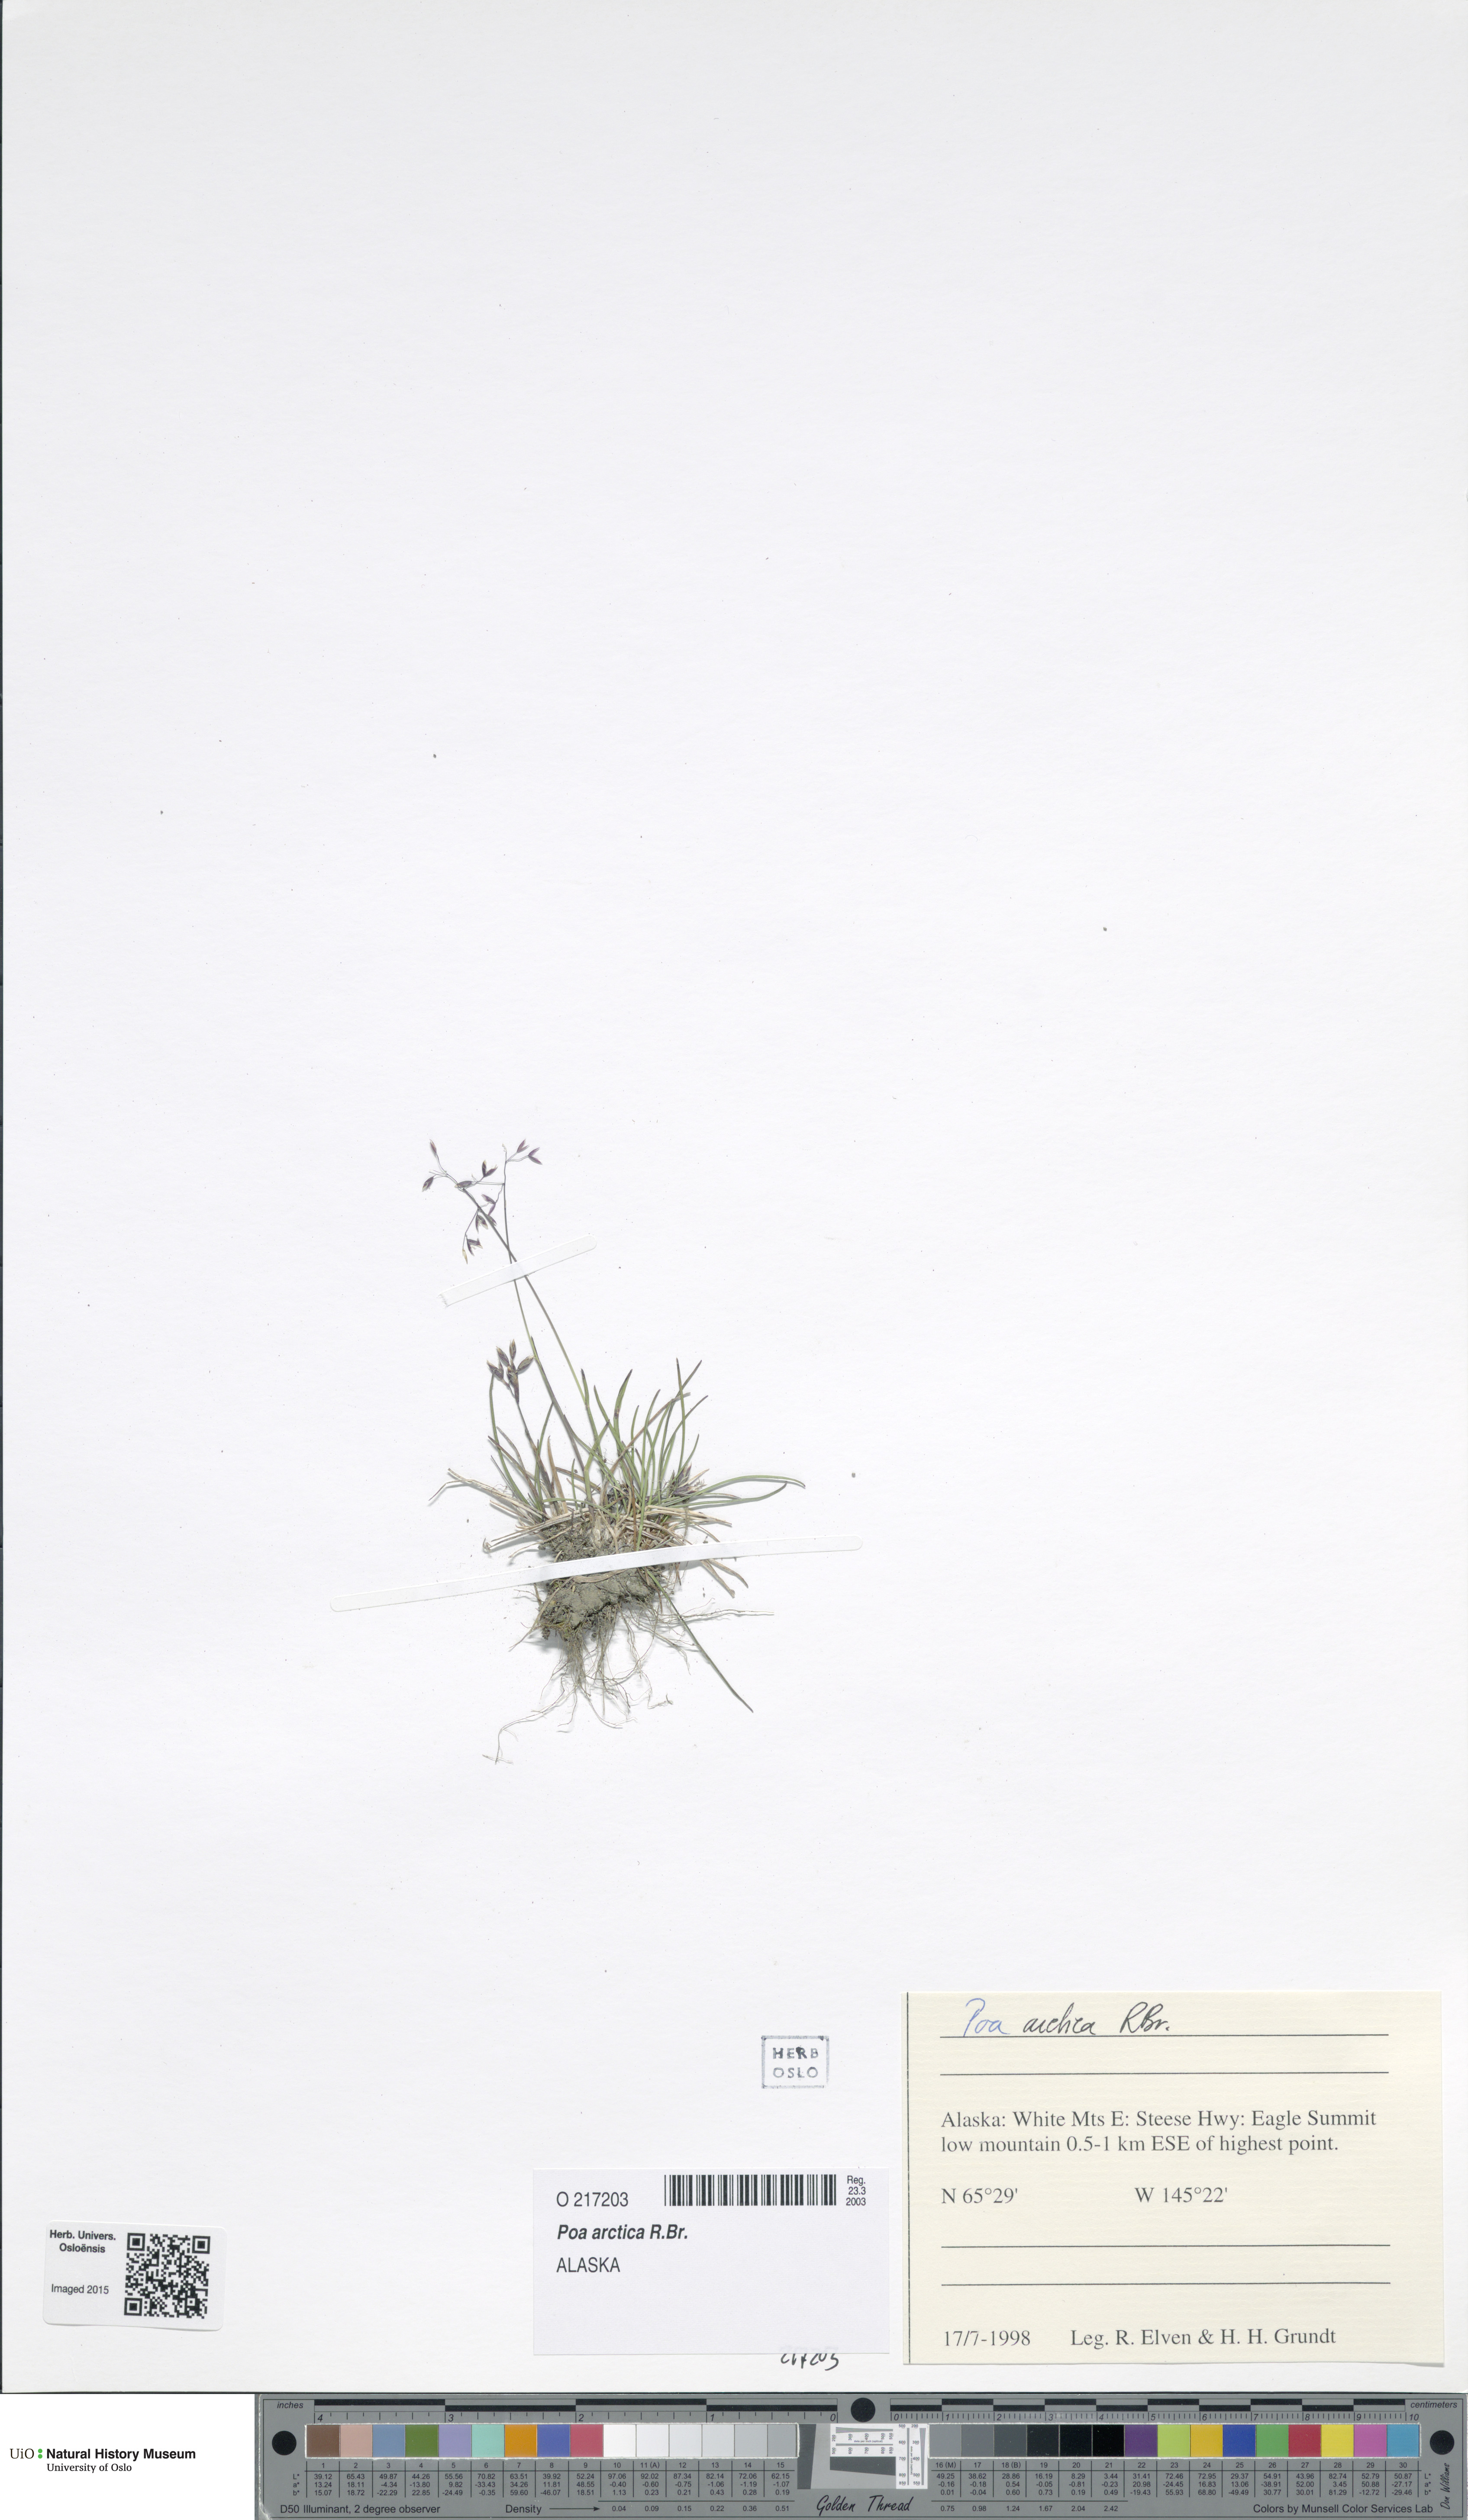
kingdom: Plantae
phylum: Tracheophyta
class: Liliopsida
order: Poales
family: Poaceae
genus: Poa
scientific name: Poa arctica
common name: Arctic bluegrass
